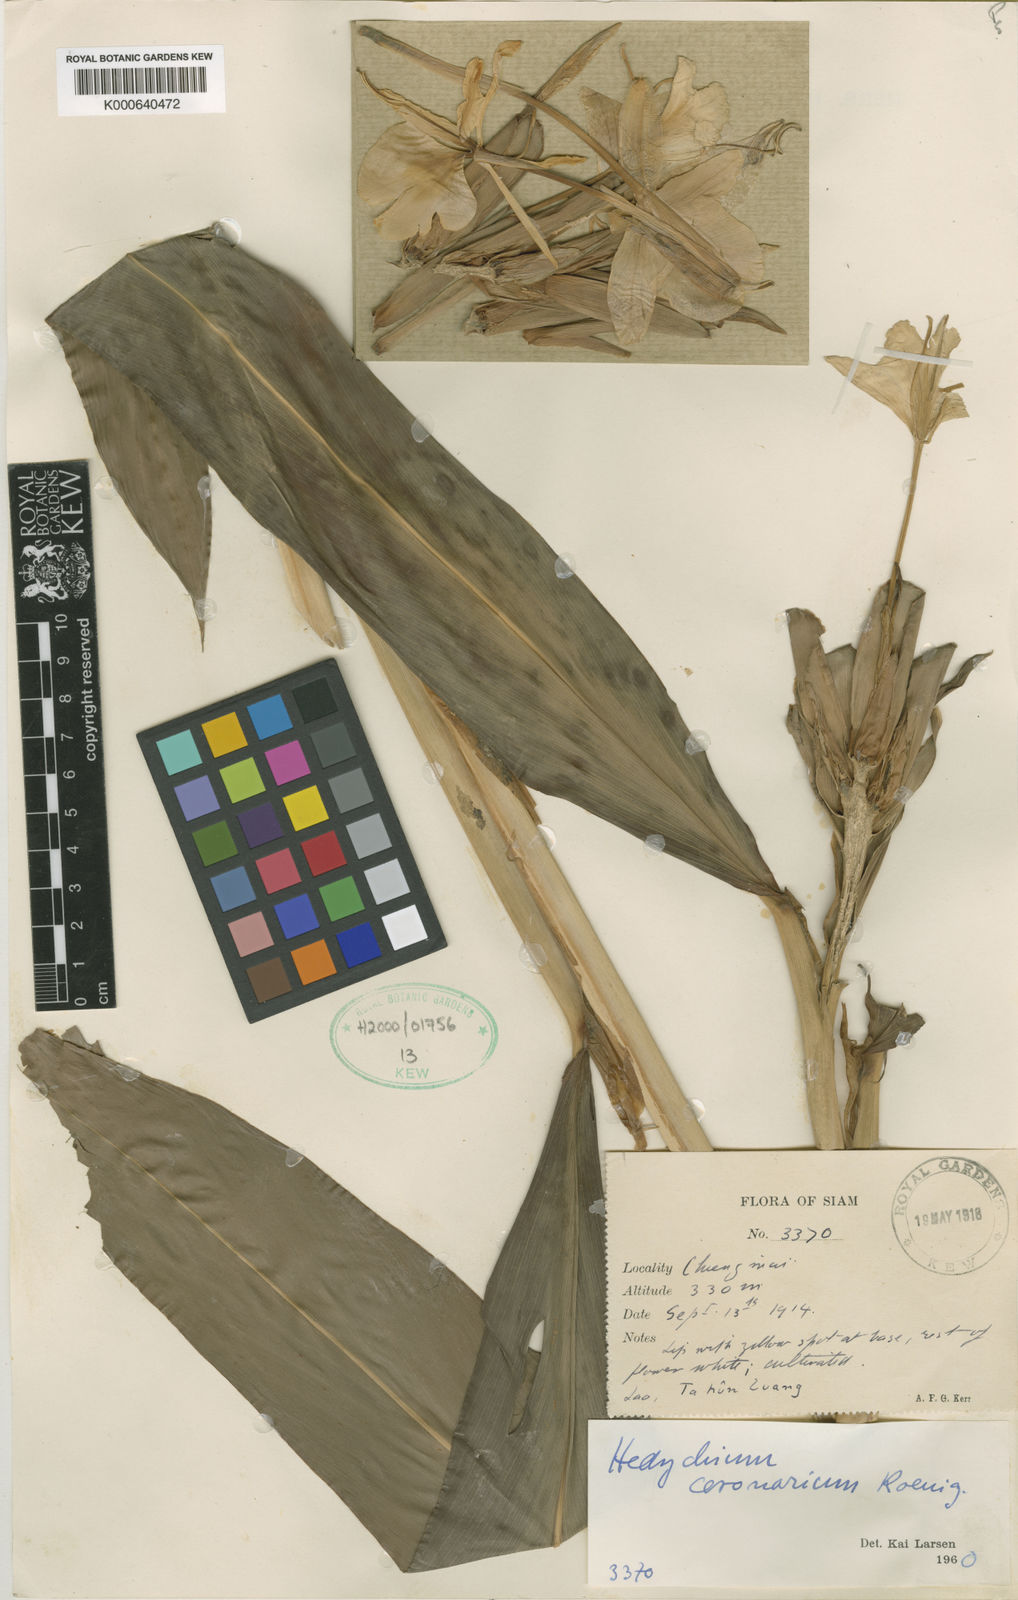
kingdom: Plantae
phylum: Tracheophyta
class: Liliopsida
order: Zingiberales
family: Zingiberaceae
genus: Hedychium
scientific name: Hedychium bousigonianum
